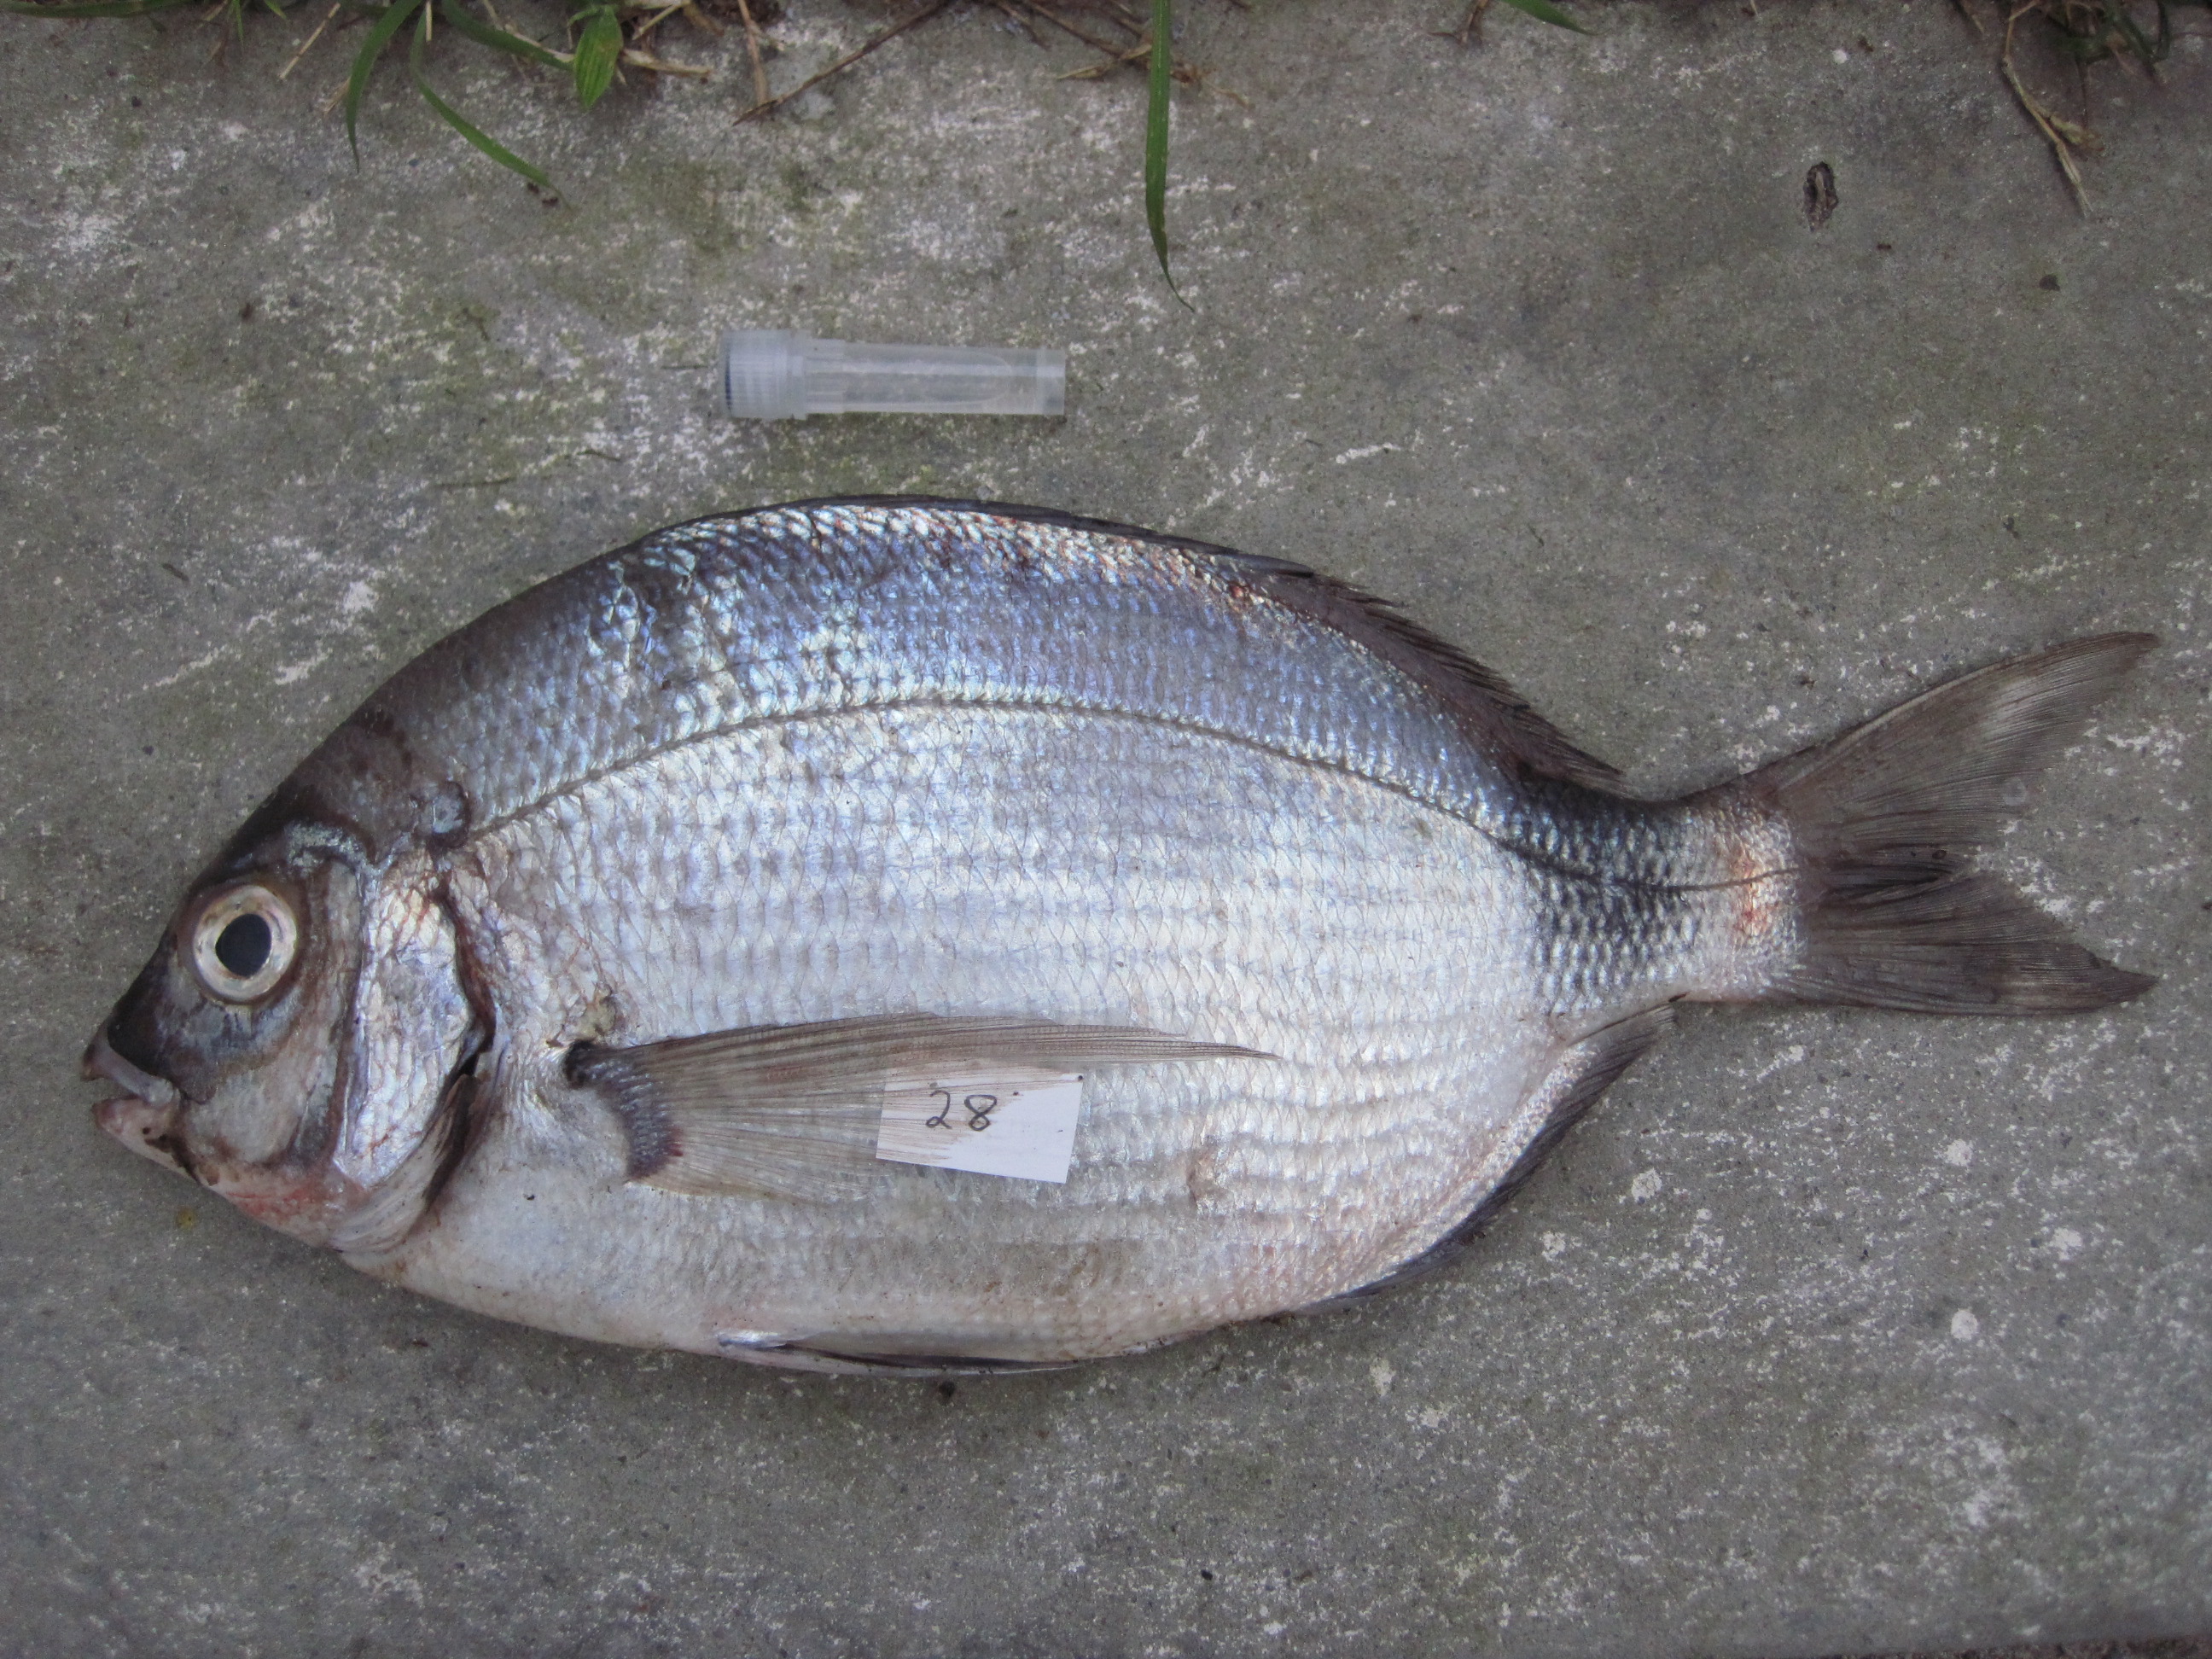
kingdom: Animalia
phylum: Chordata
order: Perciformes
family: Sparidae
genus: Diplodus
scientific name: Diplodus capensis
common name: Blacktail
